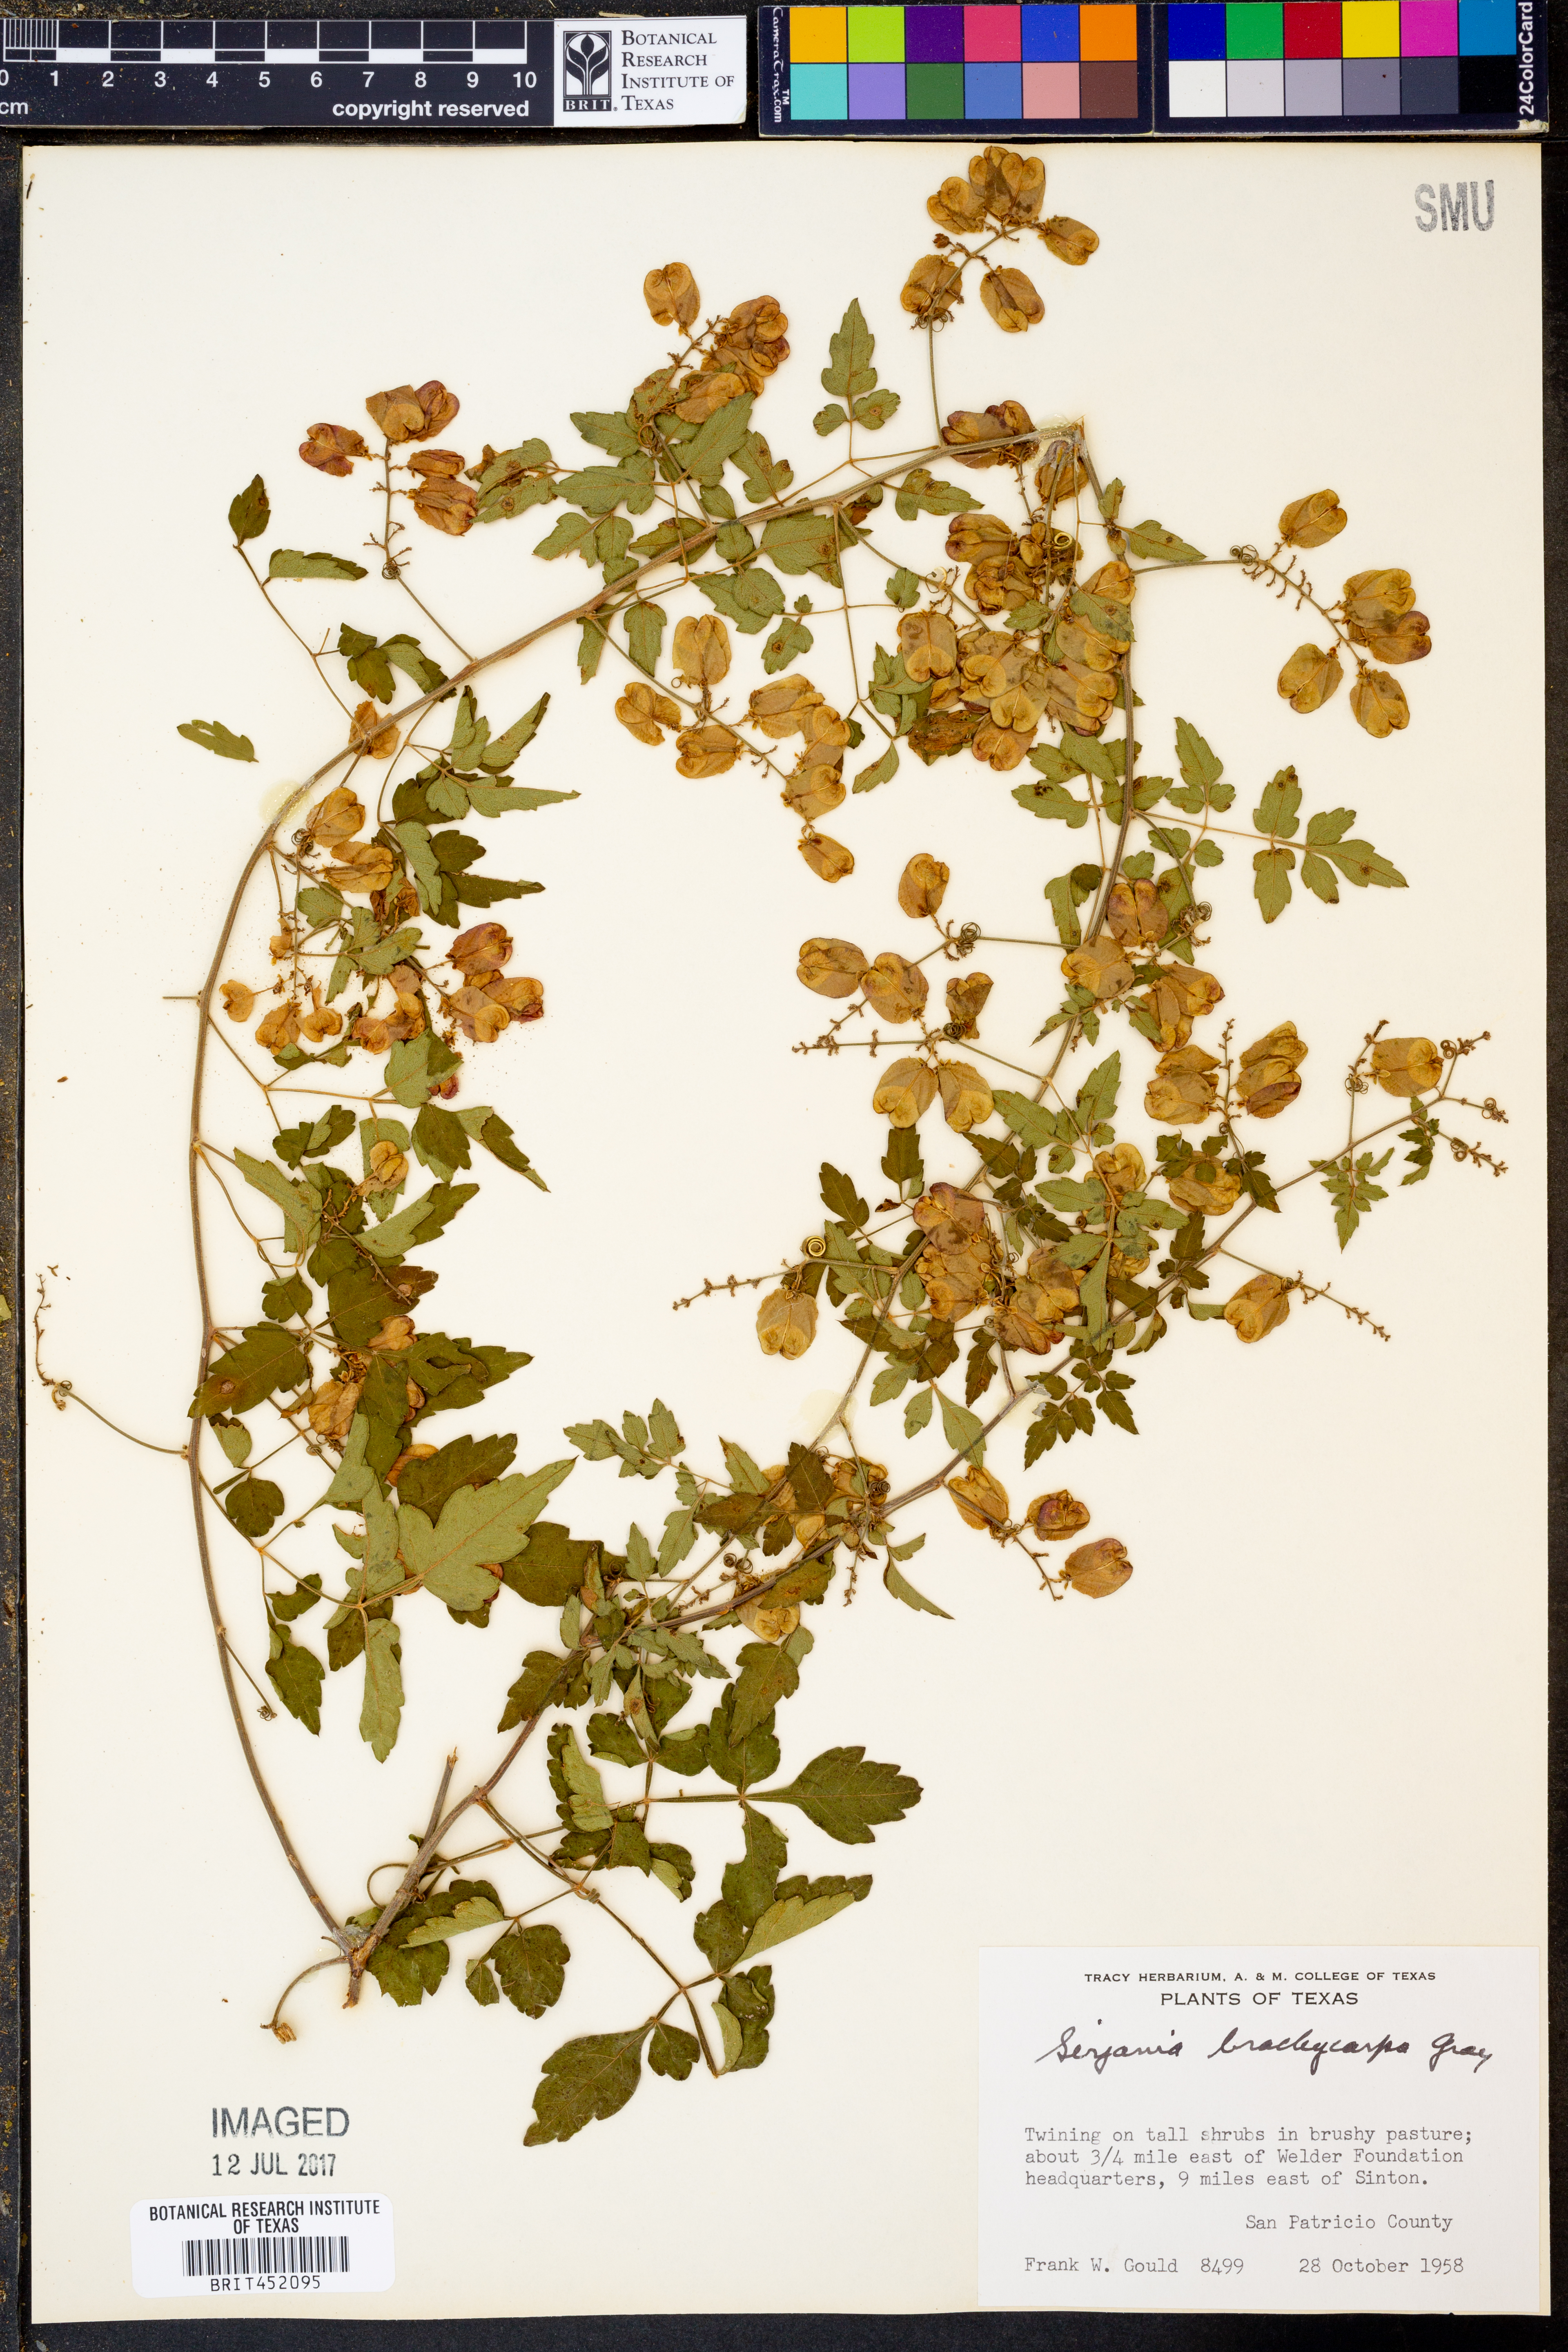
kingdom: Plantae
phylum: Tracheophyta
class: Magnoliopsida
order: Sapindales
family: Sapindaceae
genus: Serjania
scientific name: Serjania brachycarpa
